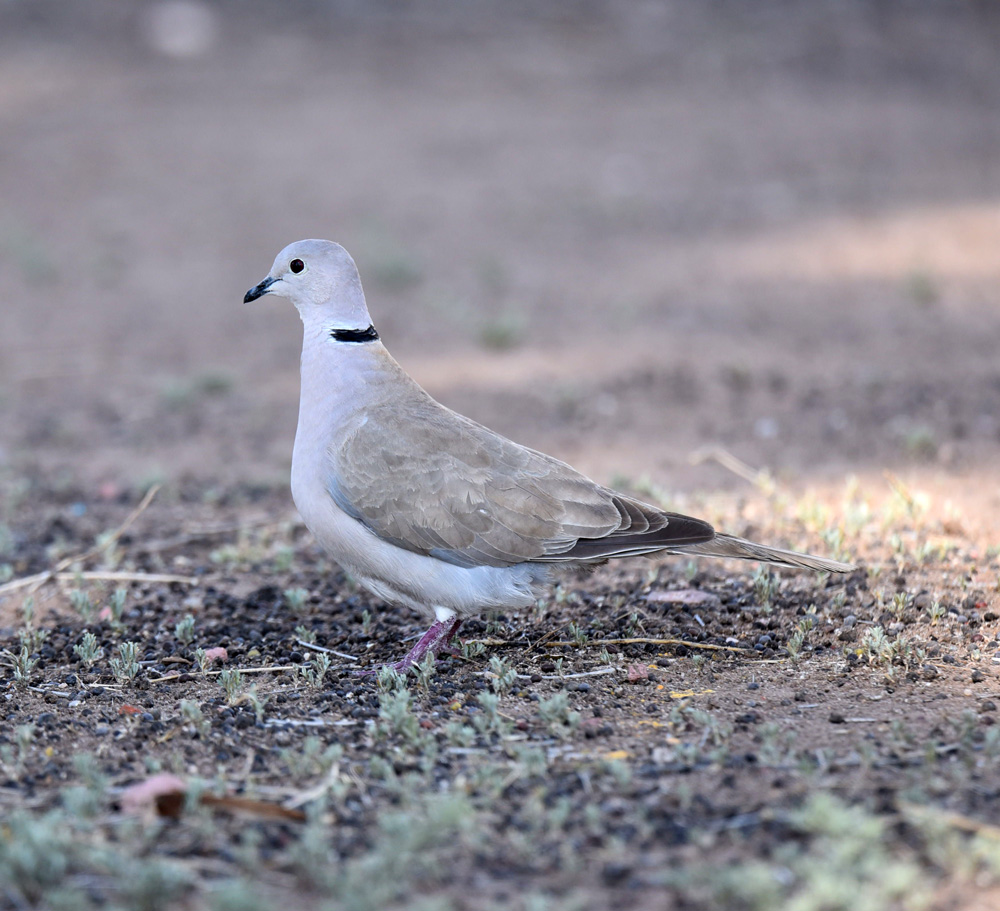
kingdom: Animalia
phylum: Chordata
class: Aves
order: Columbiformes
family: Columbidae
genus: Streptopelia
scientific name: Streptopelia decaocto
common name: Eurasian collared dove
